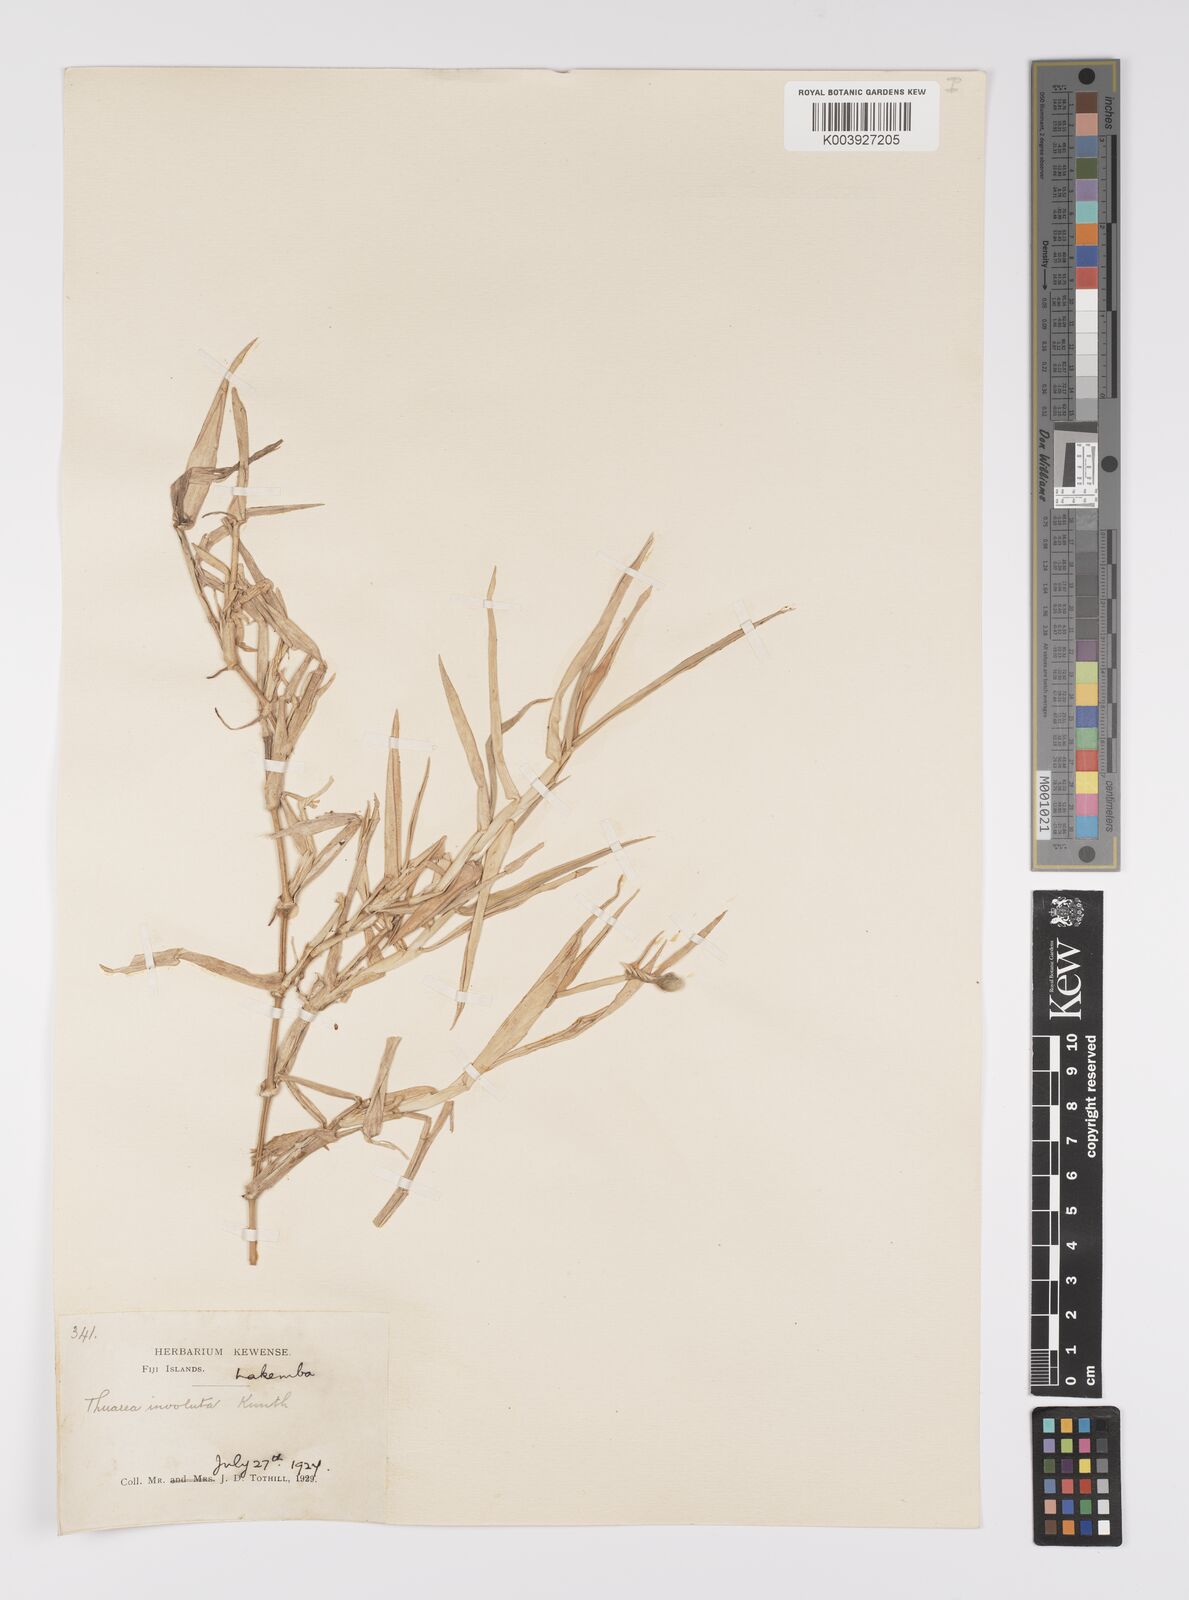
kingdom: Plantae
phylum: Tracheophyta
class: Liliopsida
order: Poales
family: Poaceae
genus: Thuarea
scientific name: Thuarea involuta
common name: Tropical beach grass
